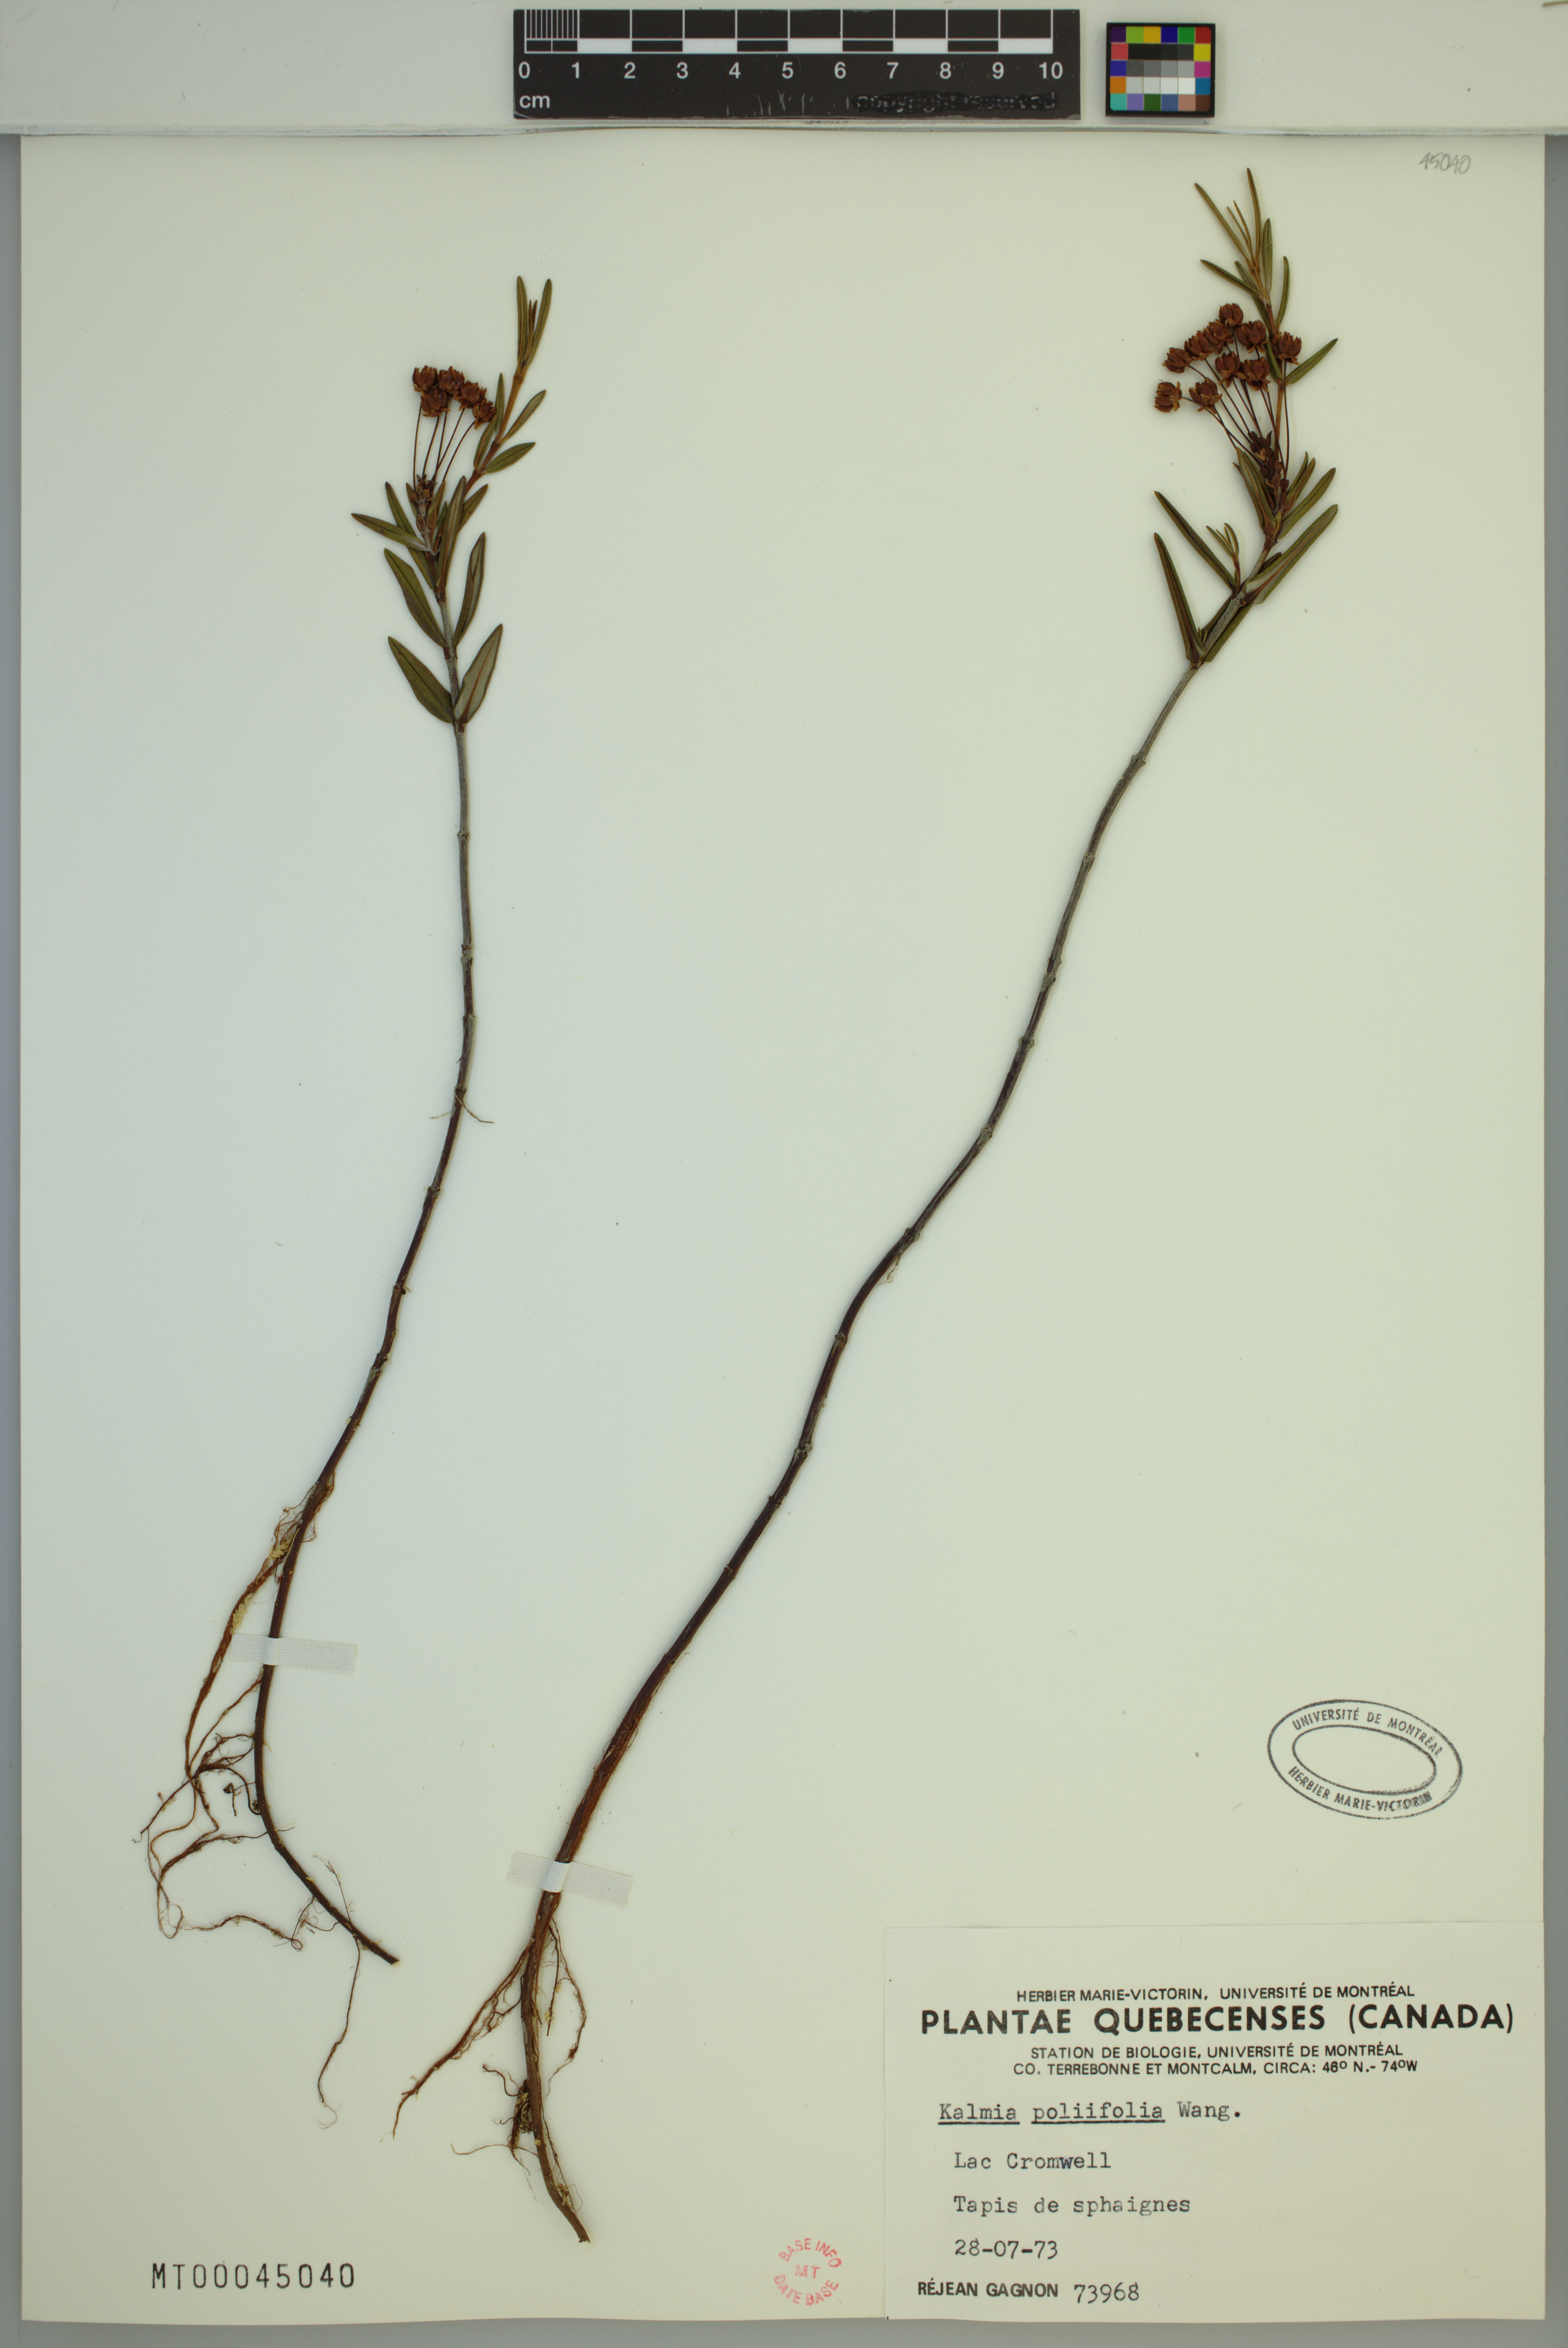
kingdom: Plantae
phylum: Tracheophyta
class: Magnoliopsida
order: Ericales
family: Ericaceae
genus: Kalmia
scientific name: Kalmia polifolia
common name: Bog-laurel
